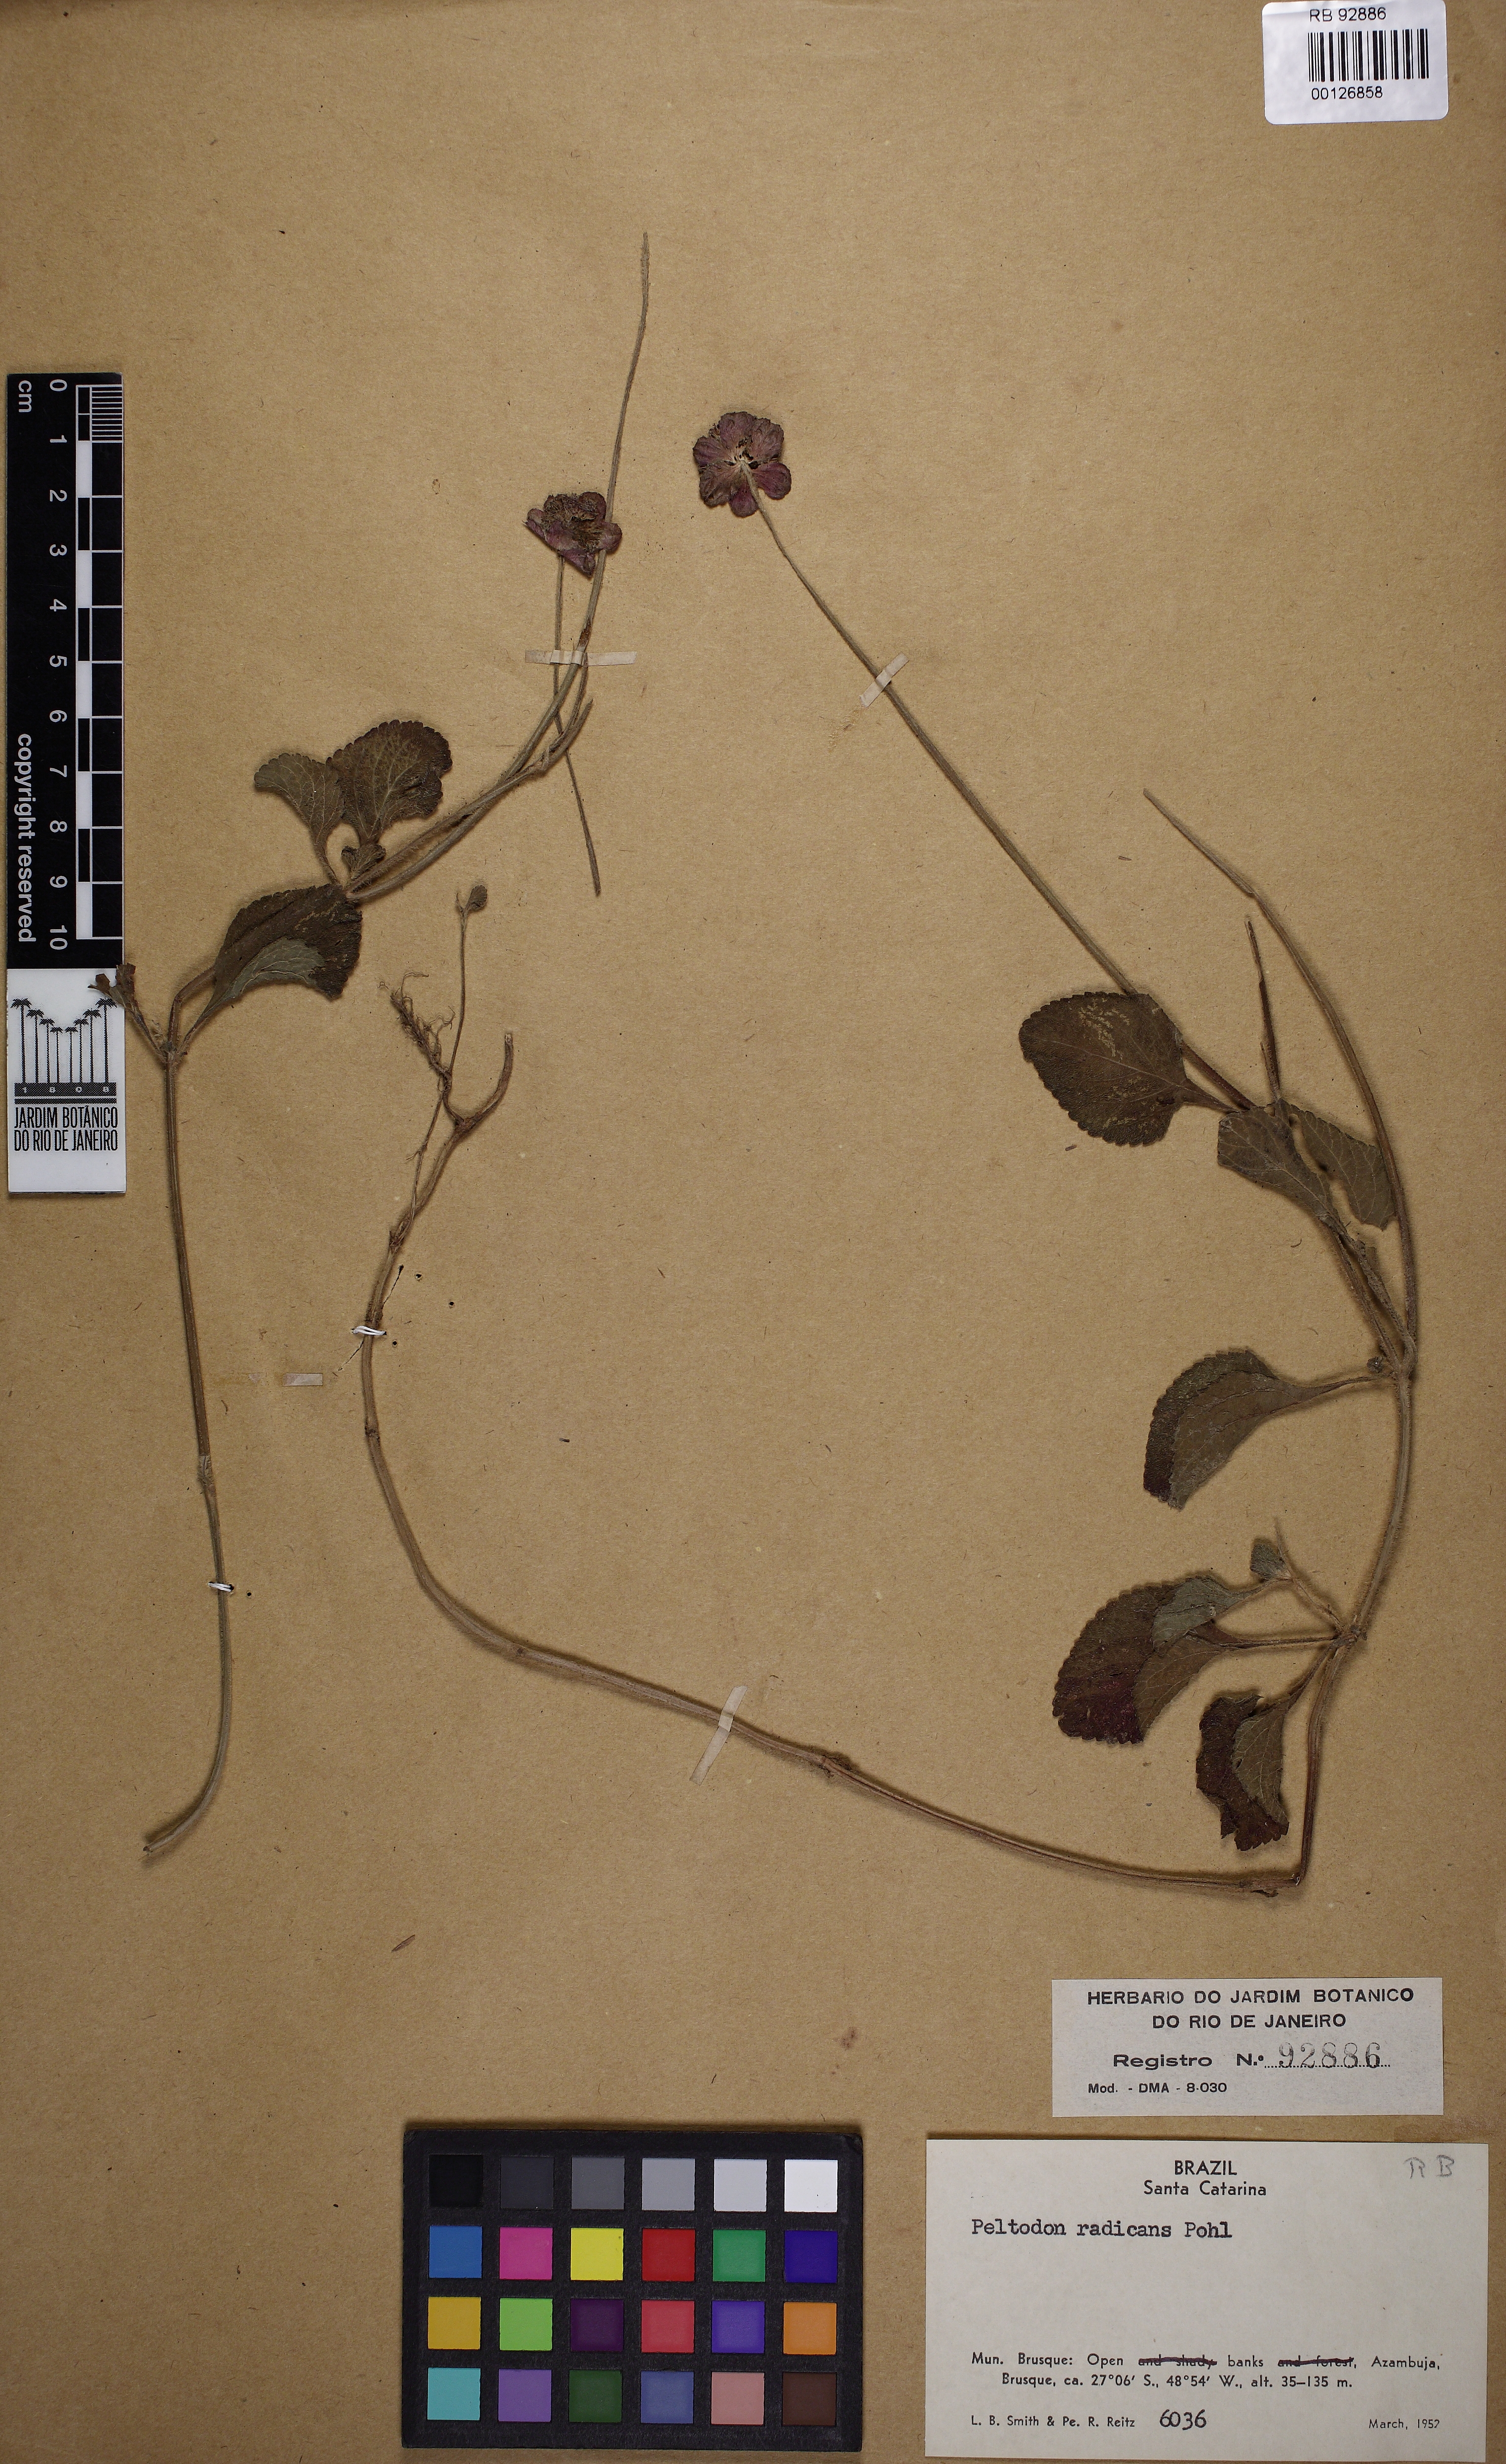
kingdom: Plantae
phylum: Tracheophyta
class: Magnoliopsida
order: Lamiales
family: Lamiaceae
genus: Hyptis
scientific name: Hyptis radicans
